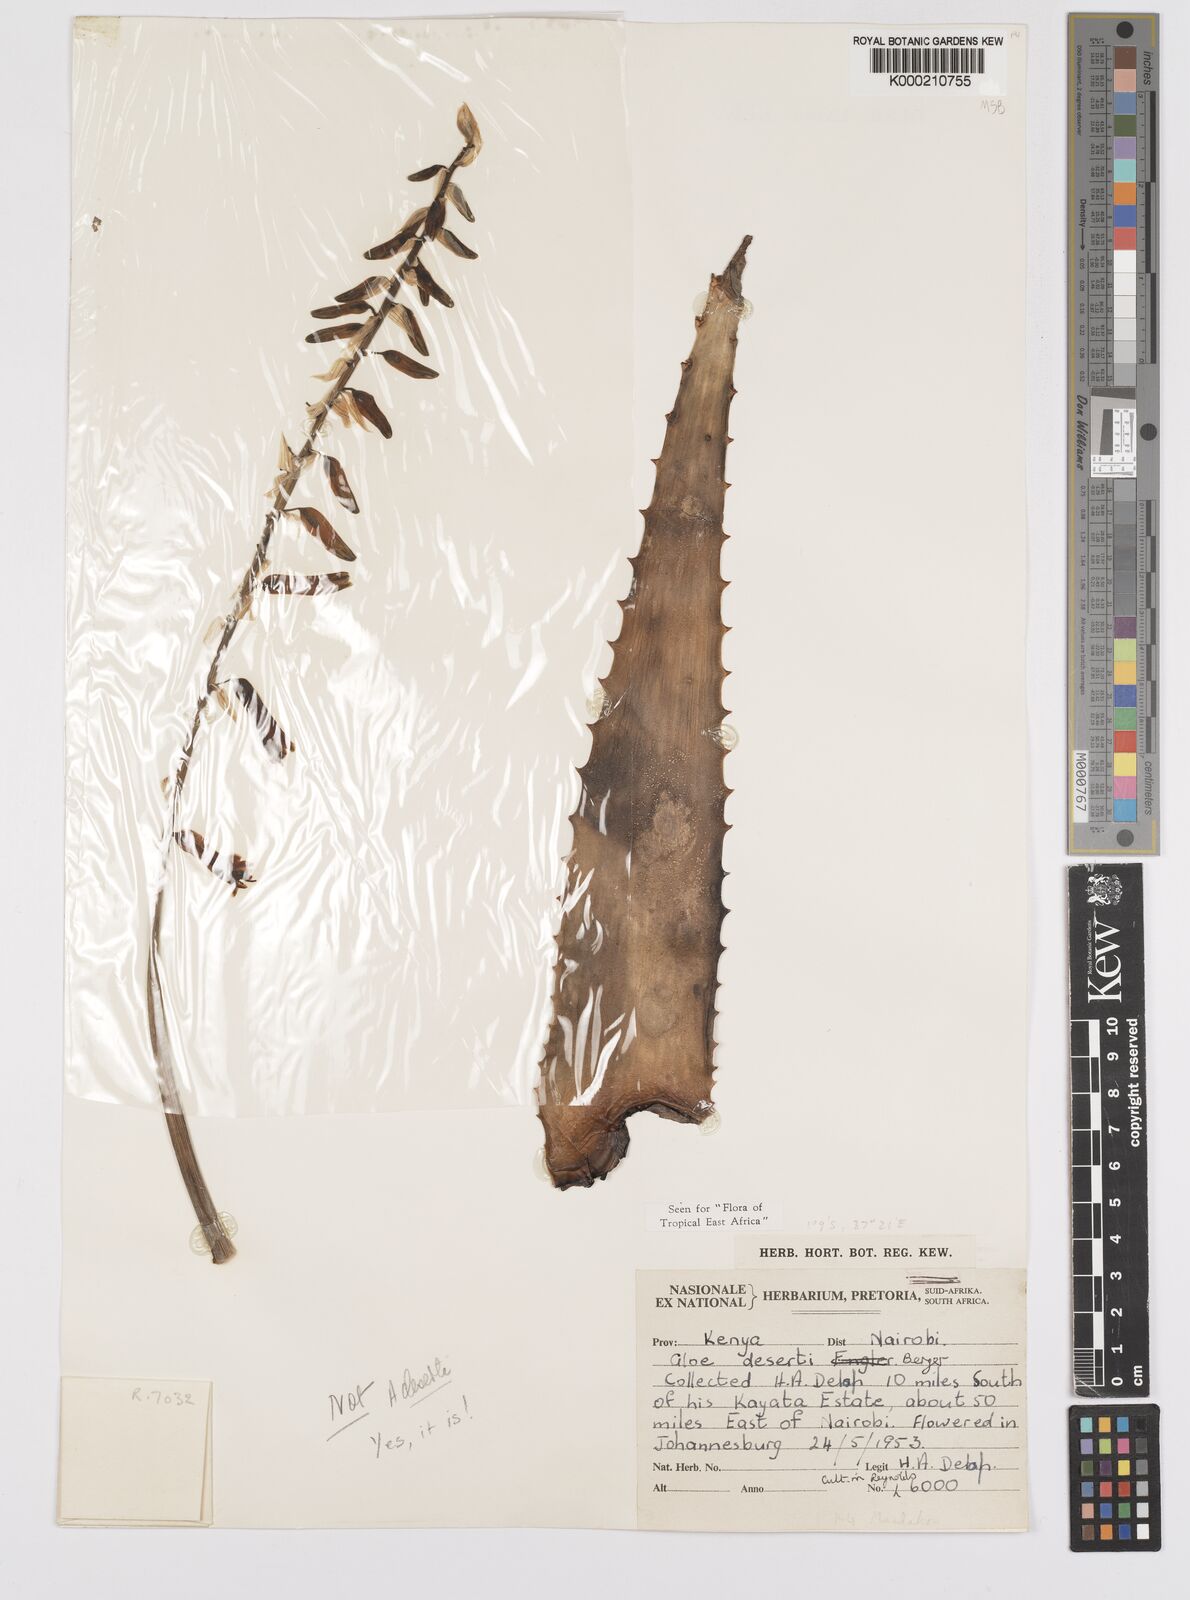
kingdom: Plantae
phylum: Tracheophyta
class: Liliopsida
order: Asparagales
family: Asphodelaceae
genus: Aloe
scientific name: Aloe deserti
